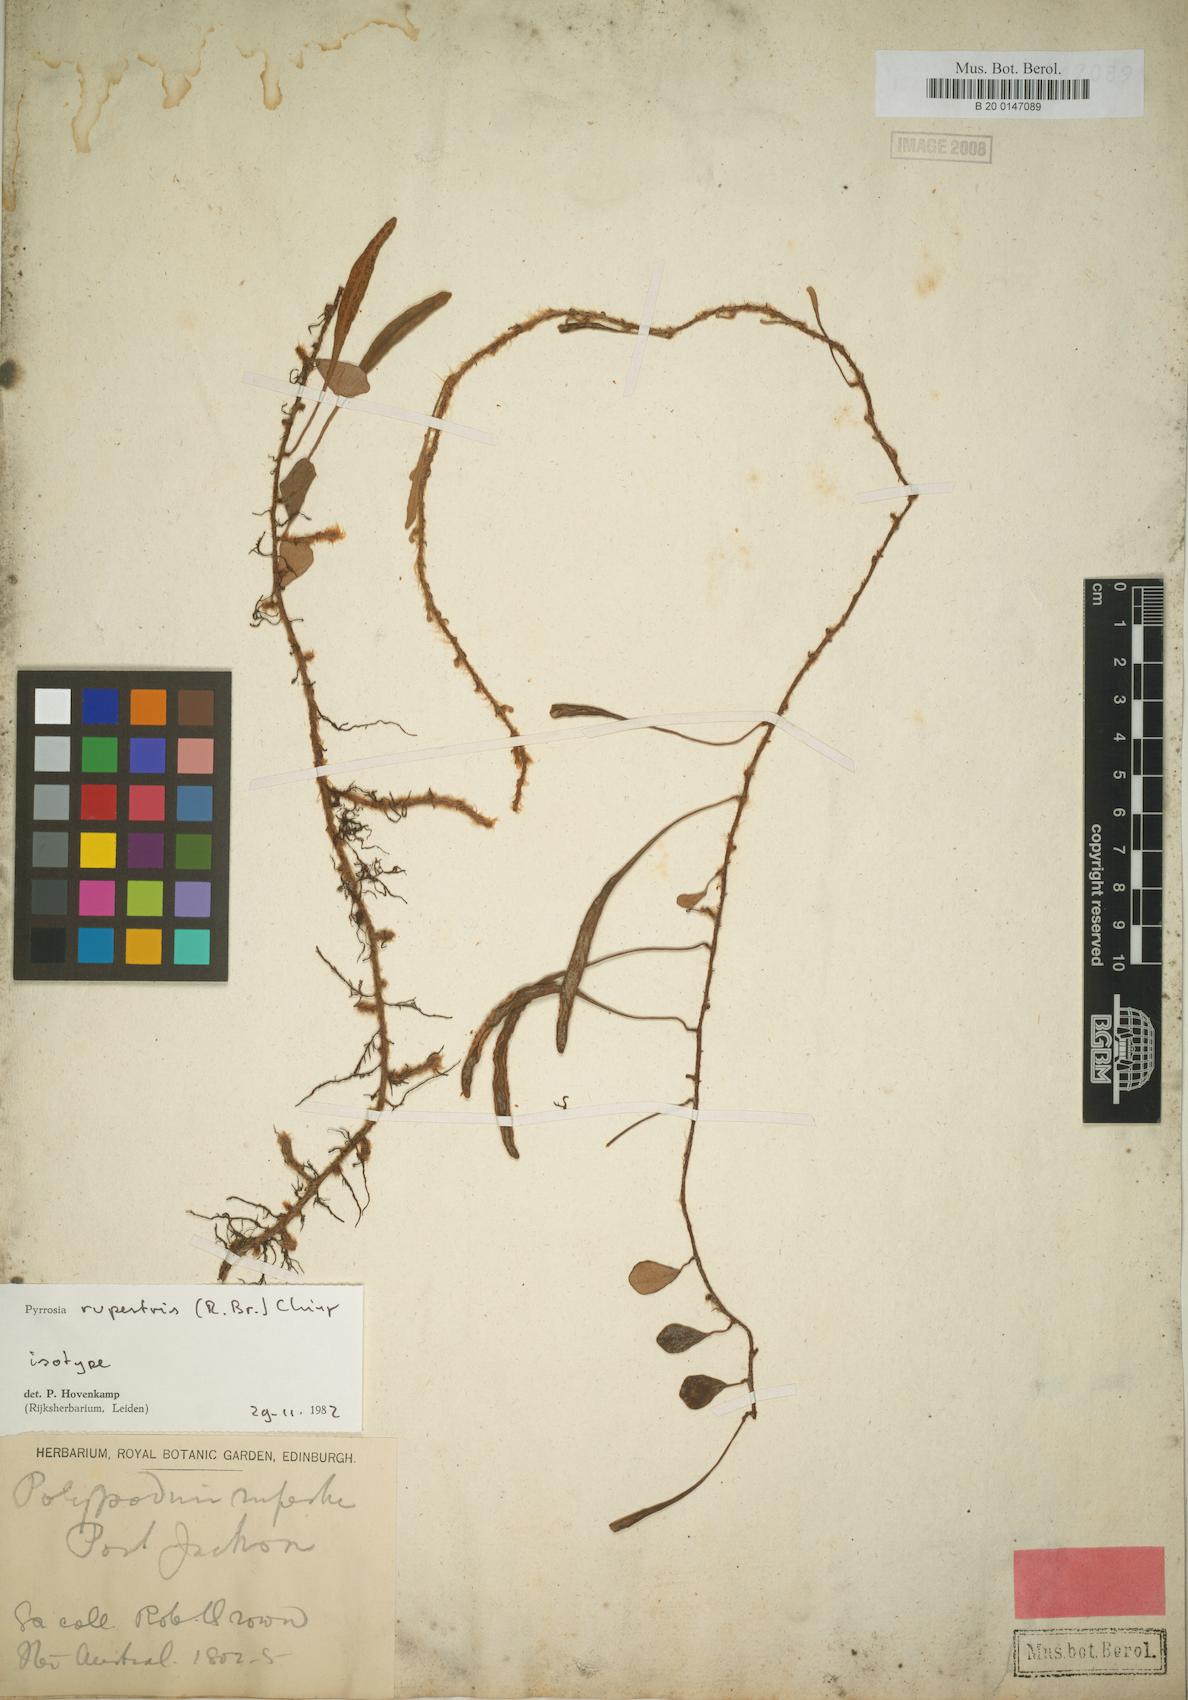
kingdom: Plantae
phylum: Tracheophyta
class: Polypodiopsida
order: Polypodiales
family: Polypodiaceae
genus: Pyrrosia
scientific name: Pyrrosia rupestris
